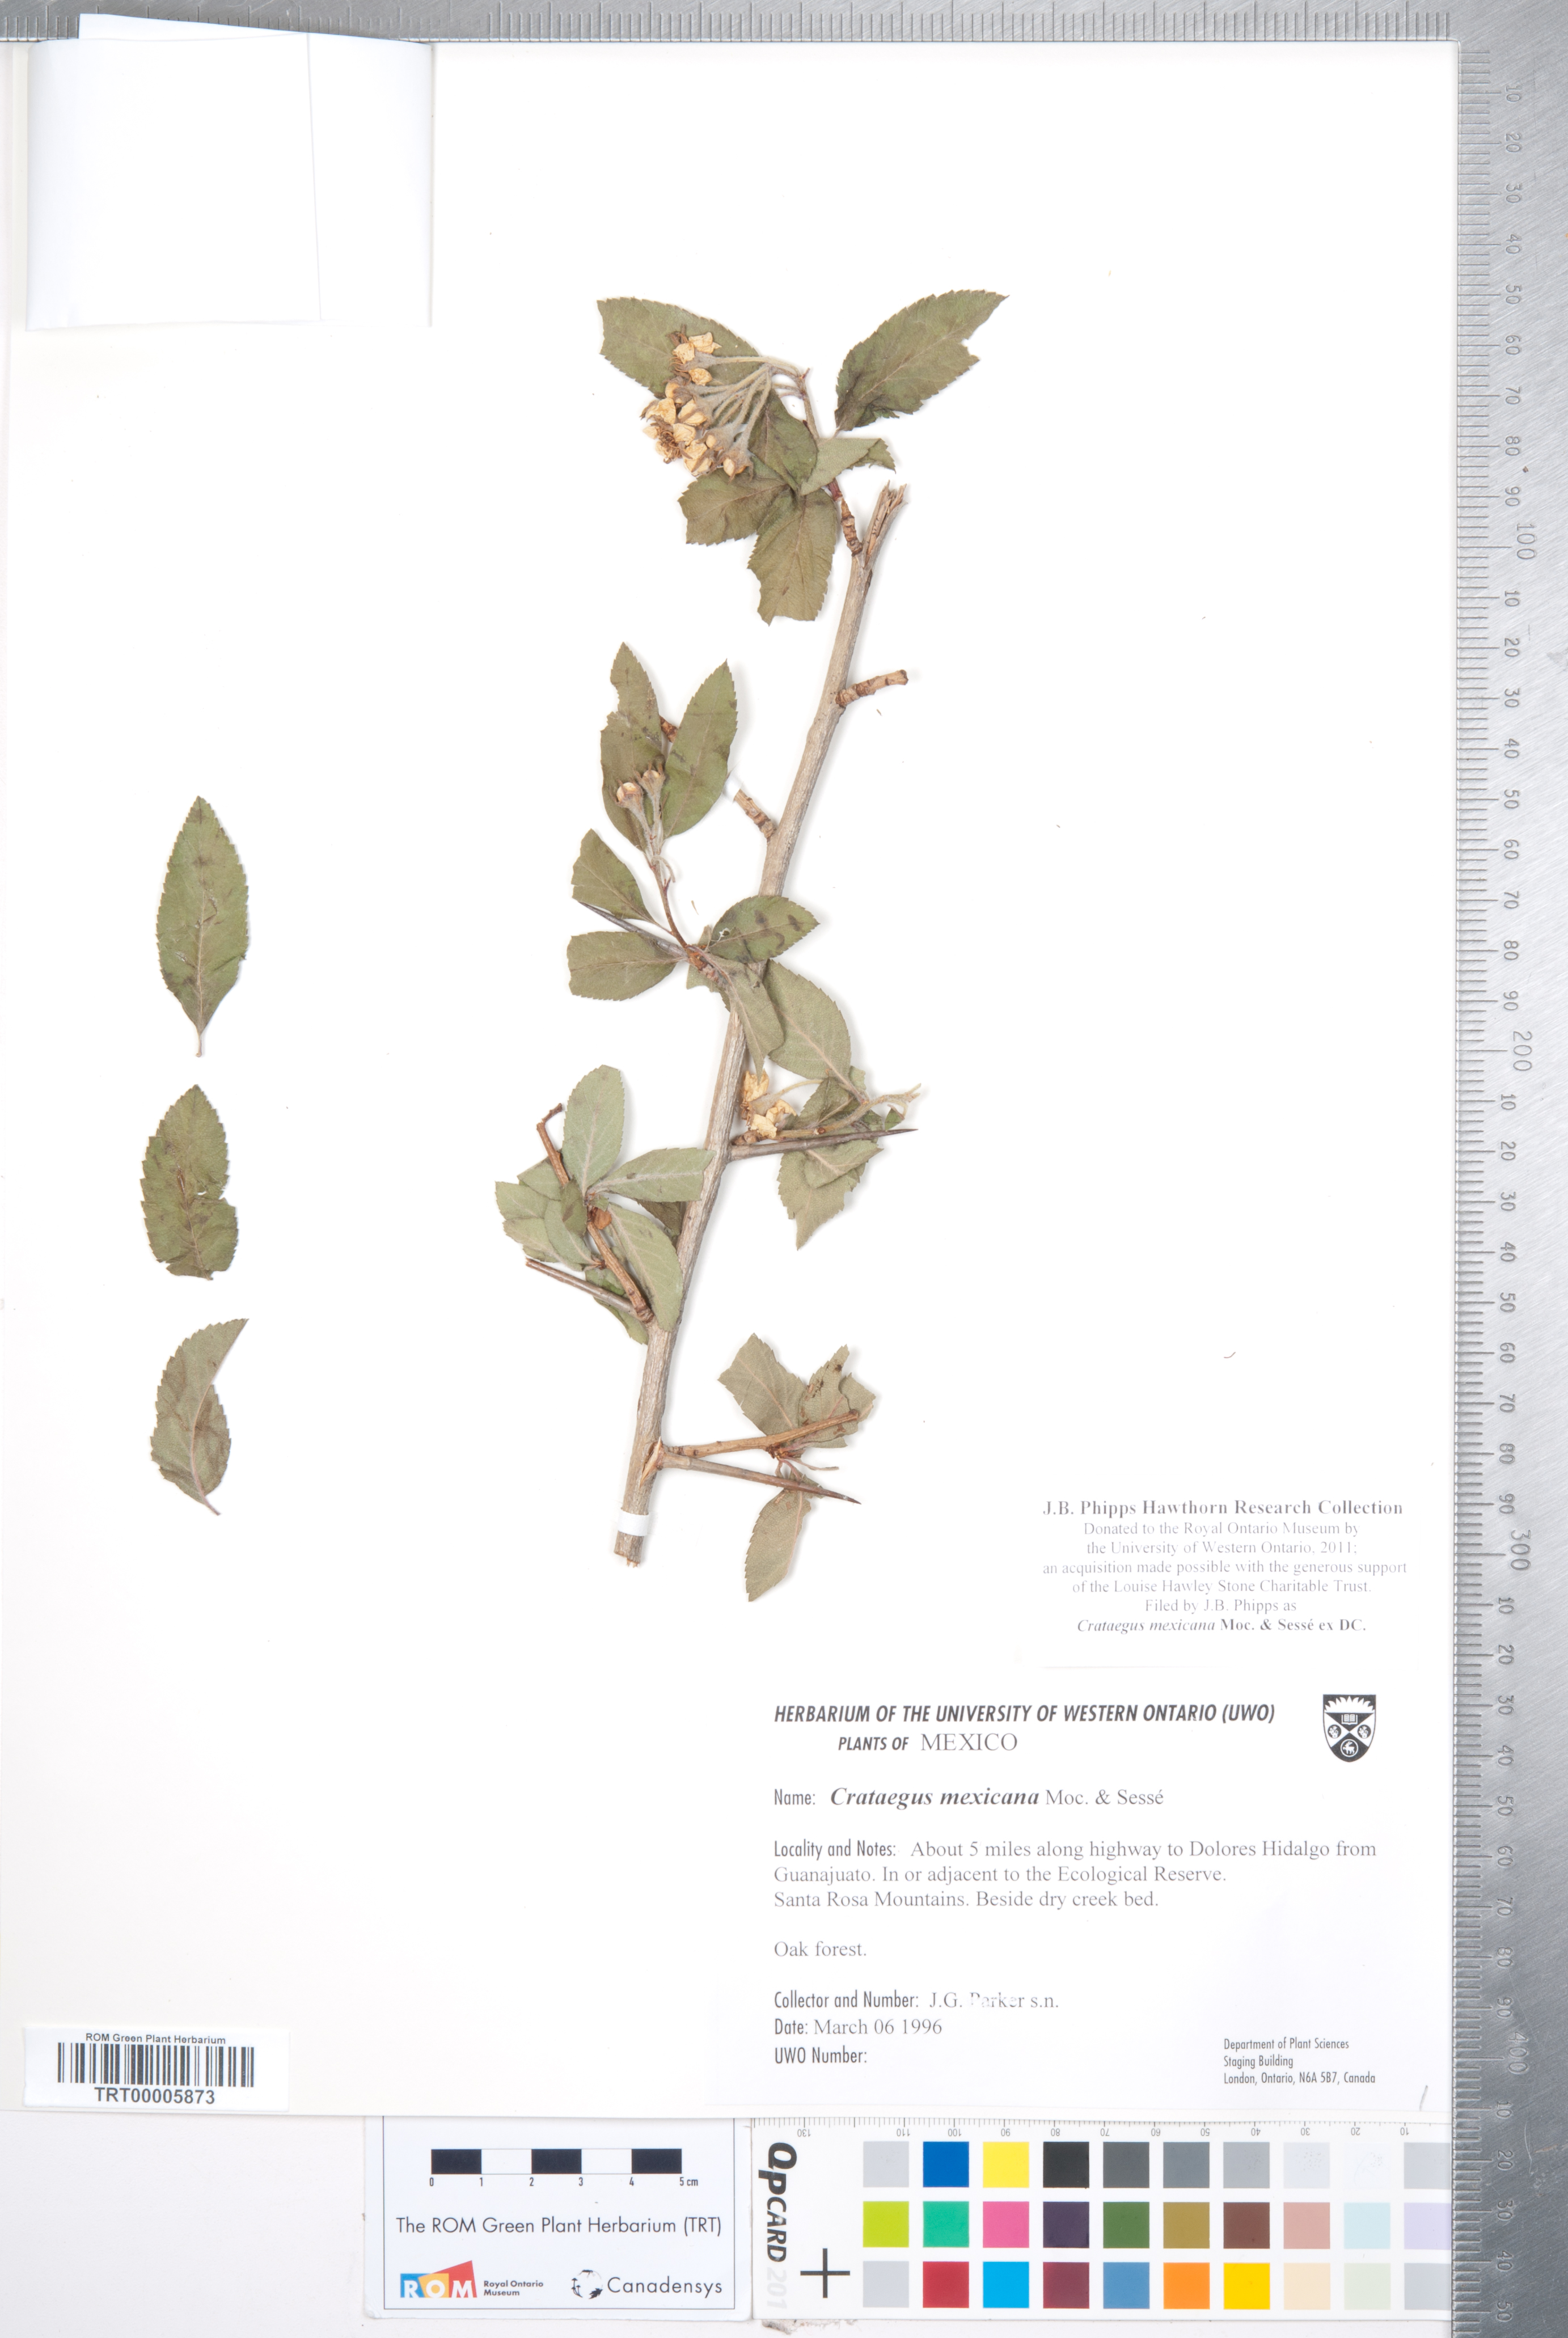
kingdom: Plantae
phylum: Tracheophyta
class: Magnoliopsida
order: Rosales
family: Rosaceae
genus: Crataegus
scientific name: Crataegus mexicana
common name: Mexican hawthorn
